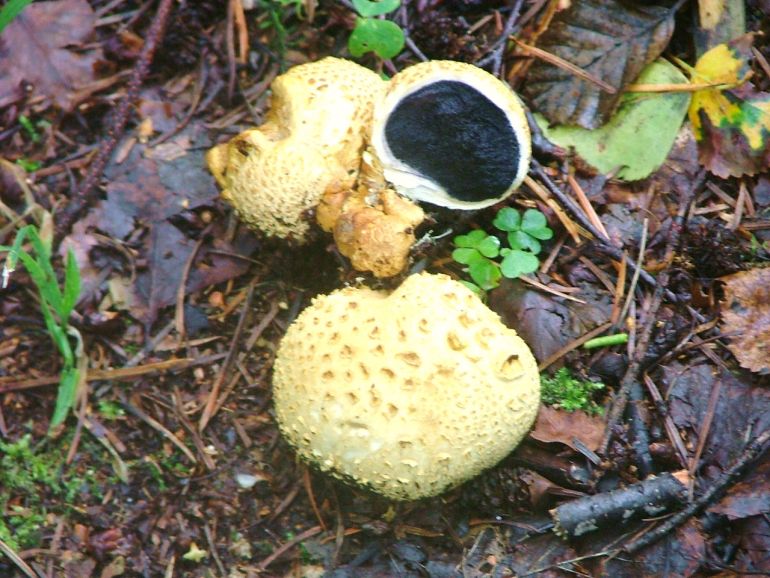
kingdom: Fungi
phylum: Basidiomycota
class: Agaricomycetes
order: Boletales
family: Sclerodermataceae
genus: Scleroderma
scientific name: Scleroderma citrinum
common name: almindelig bruskbold
